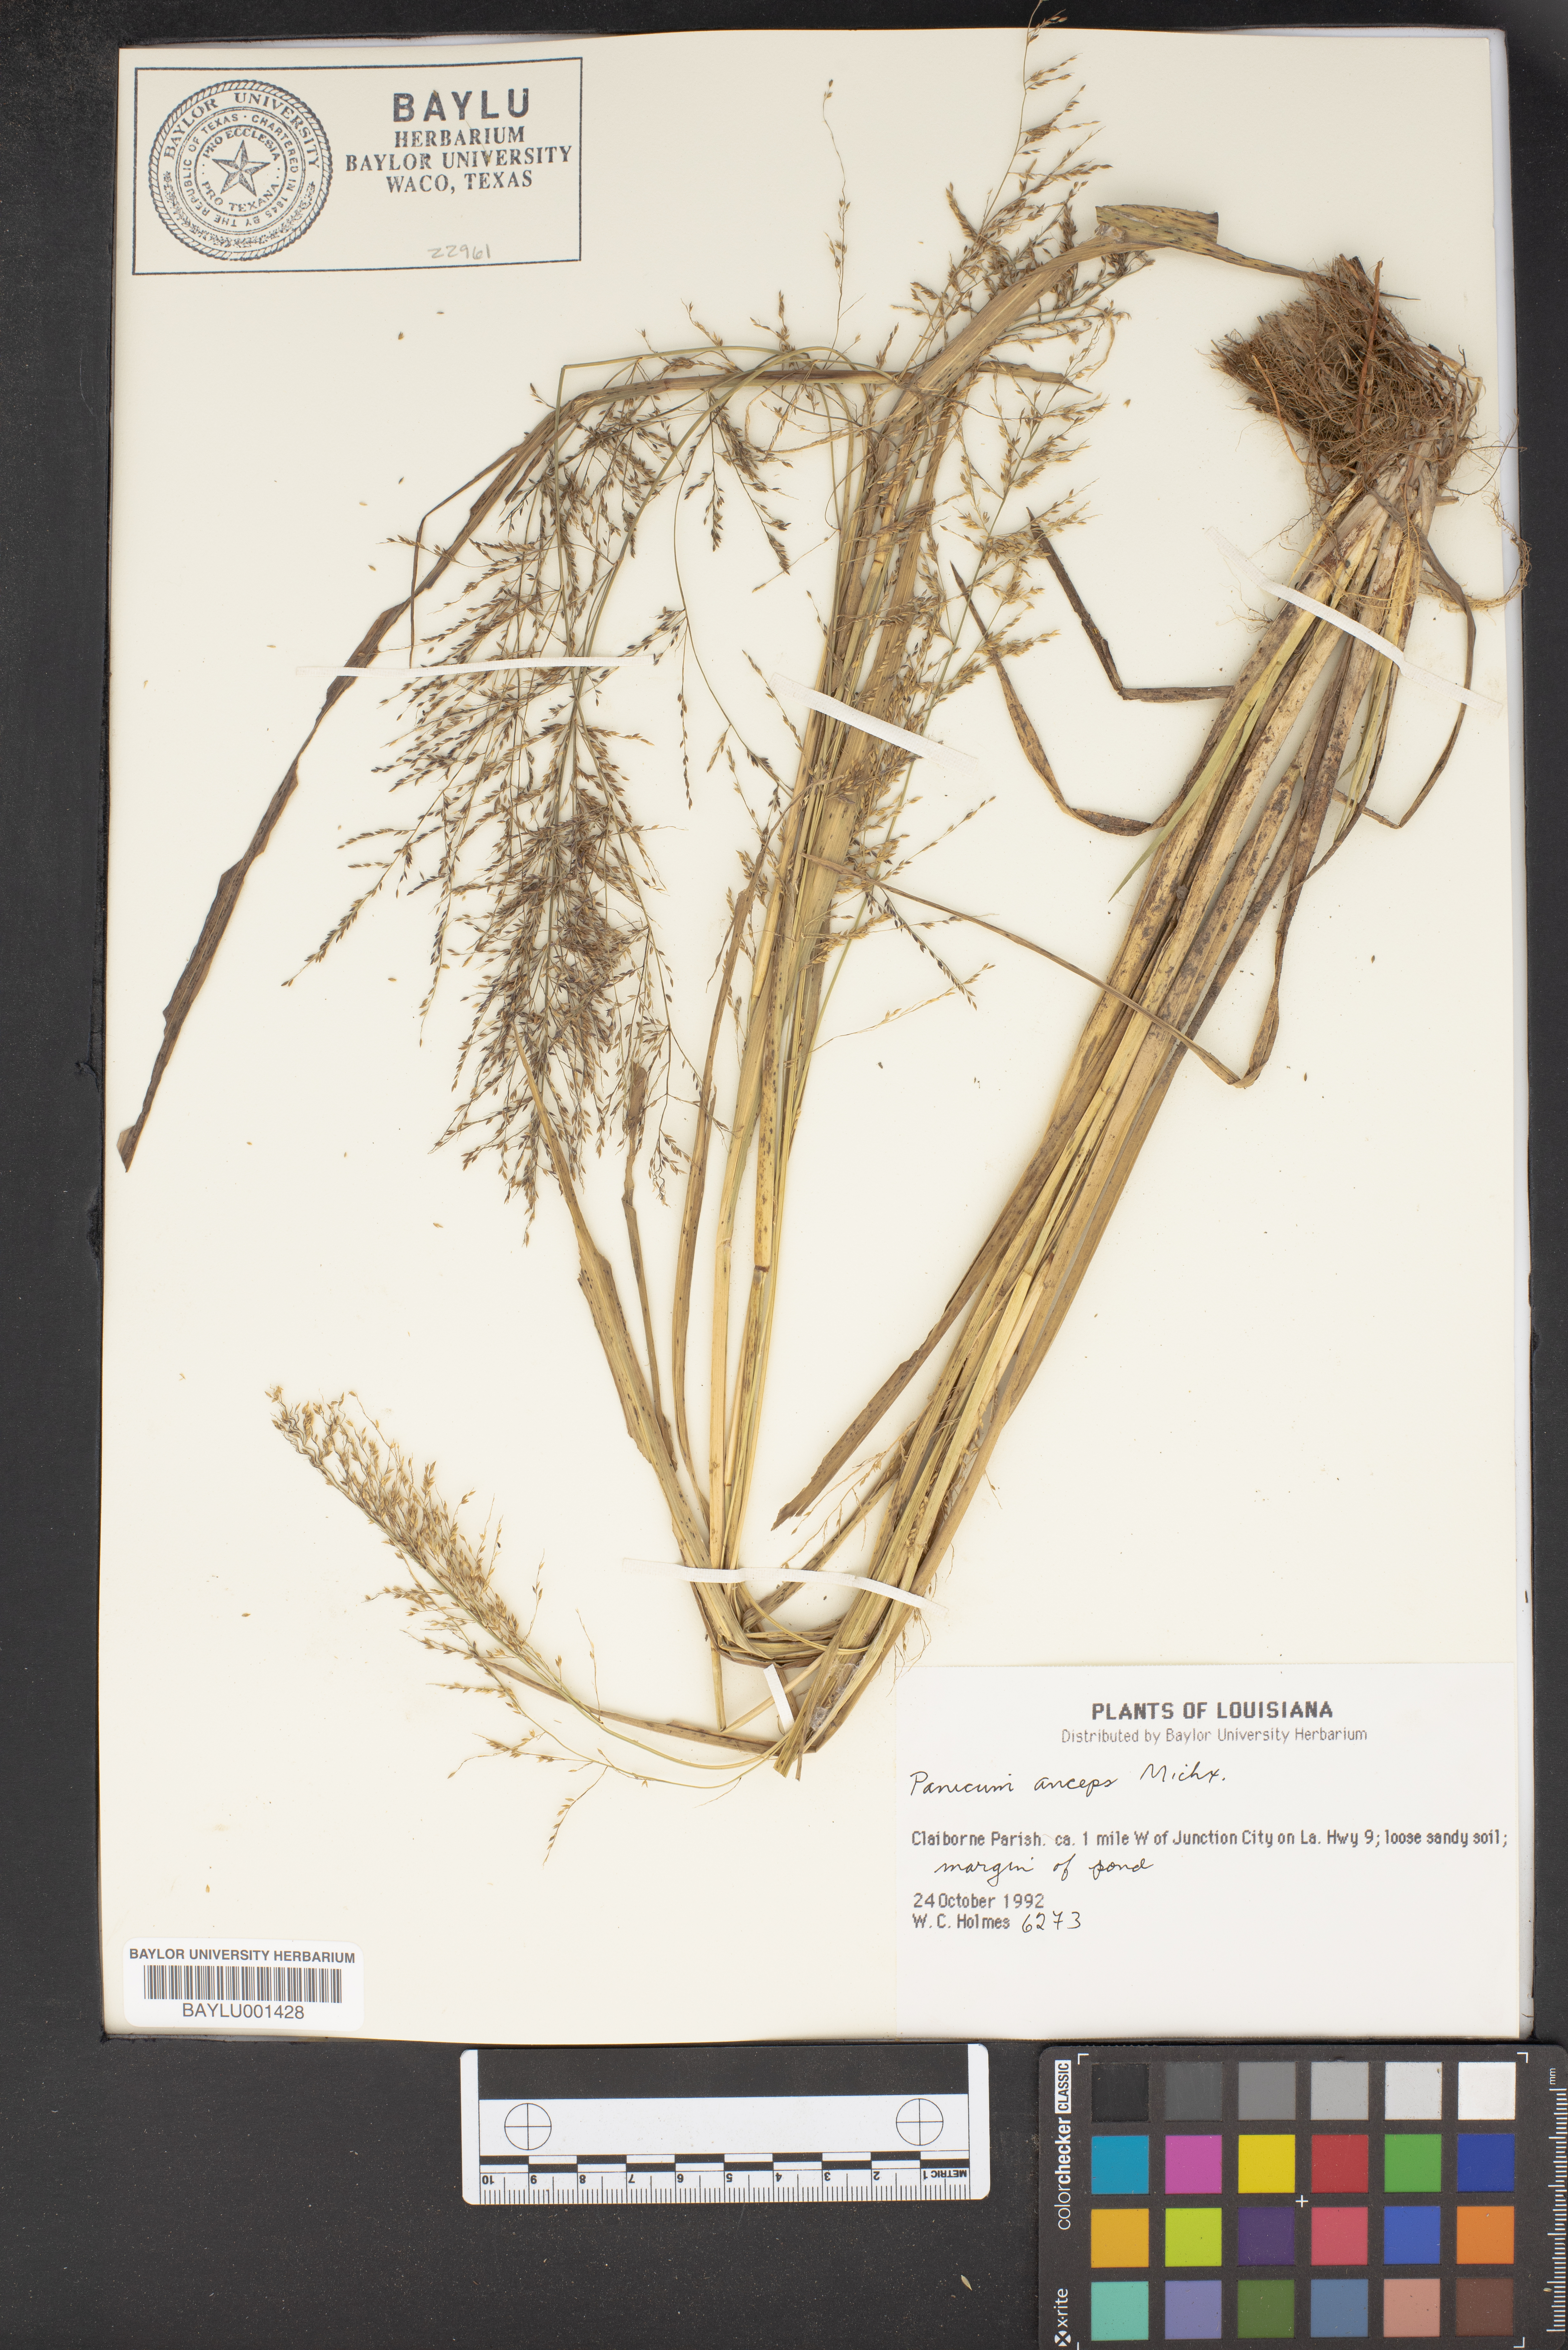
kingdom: Plantae
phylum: Tracheophyta
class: Liliopsida
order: Poales
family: Poaceae
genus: Coleataenia
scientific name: Coleataenia anceps
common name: Beaked panic grass
